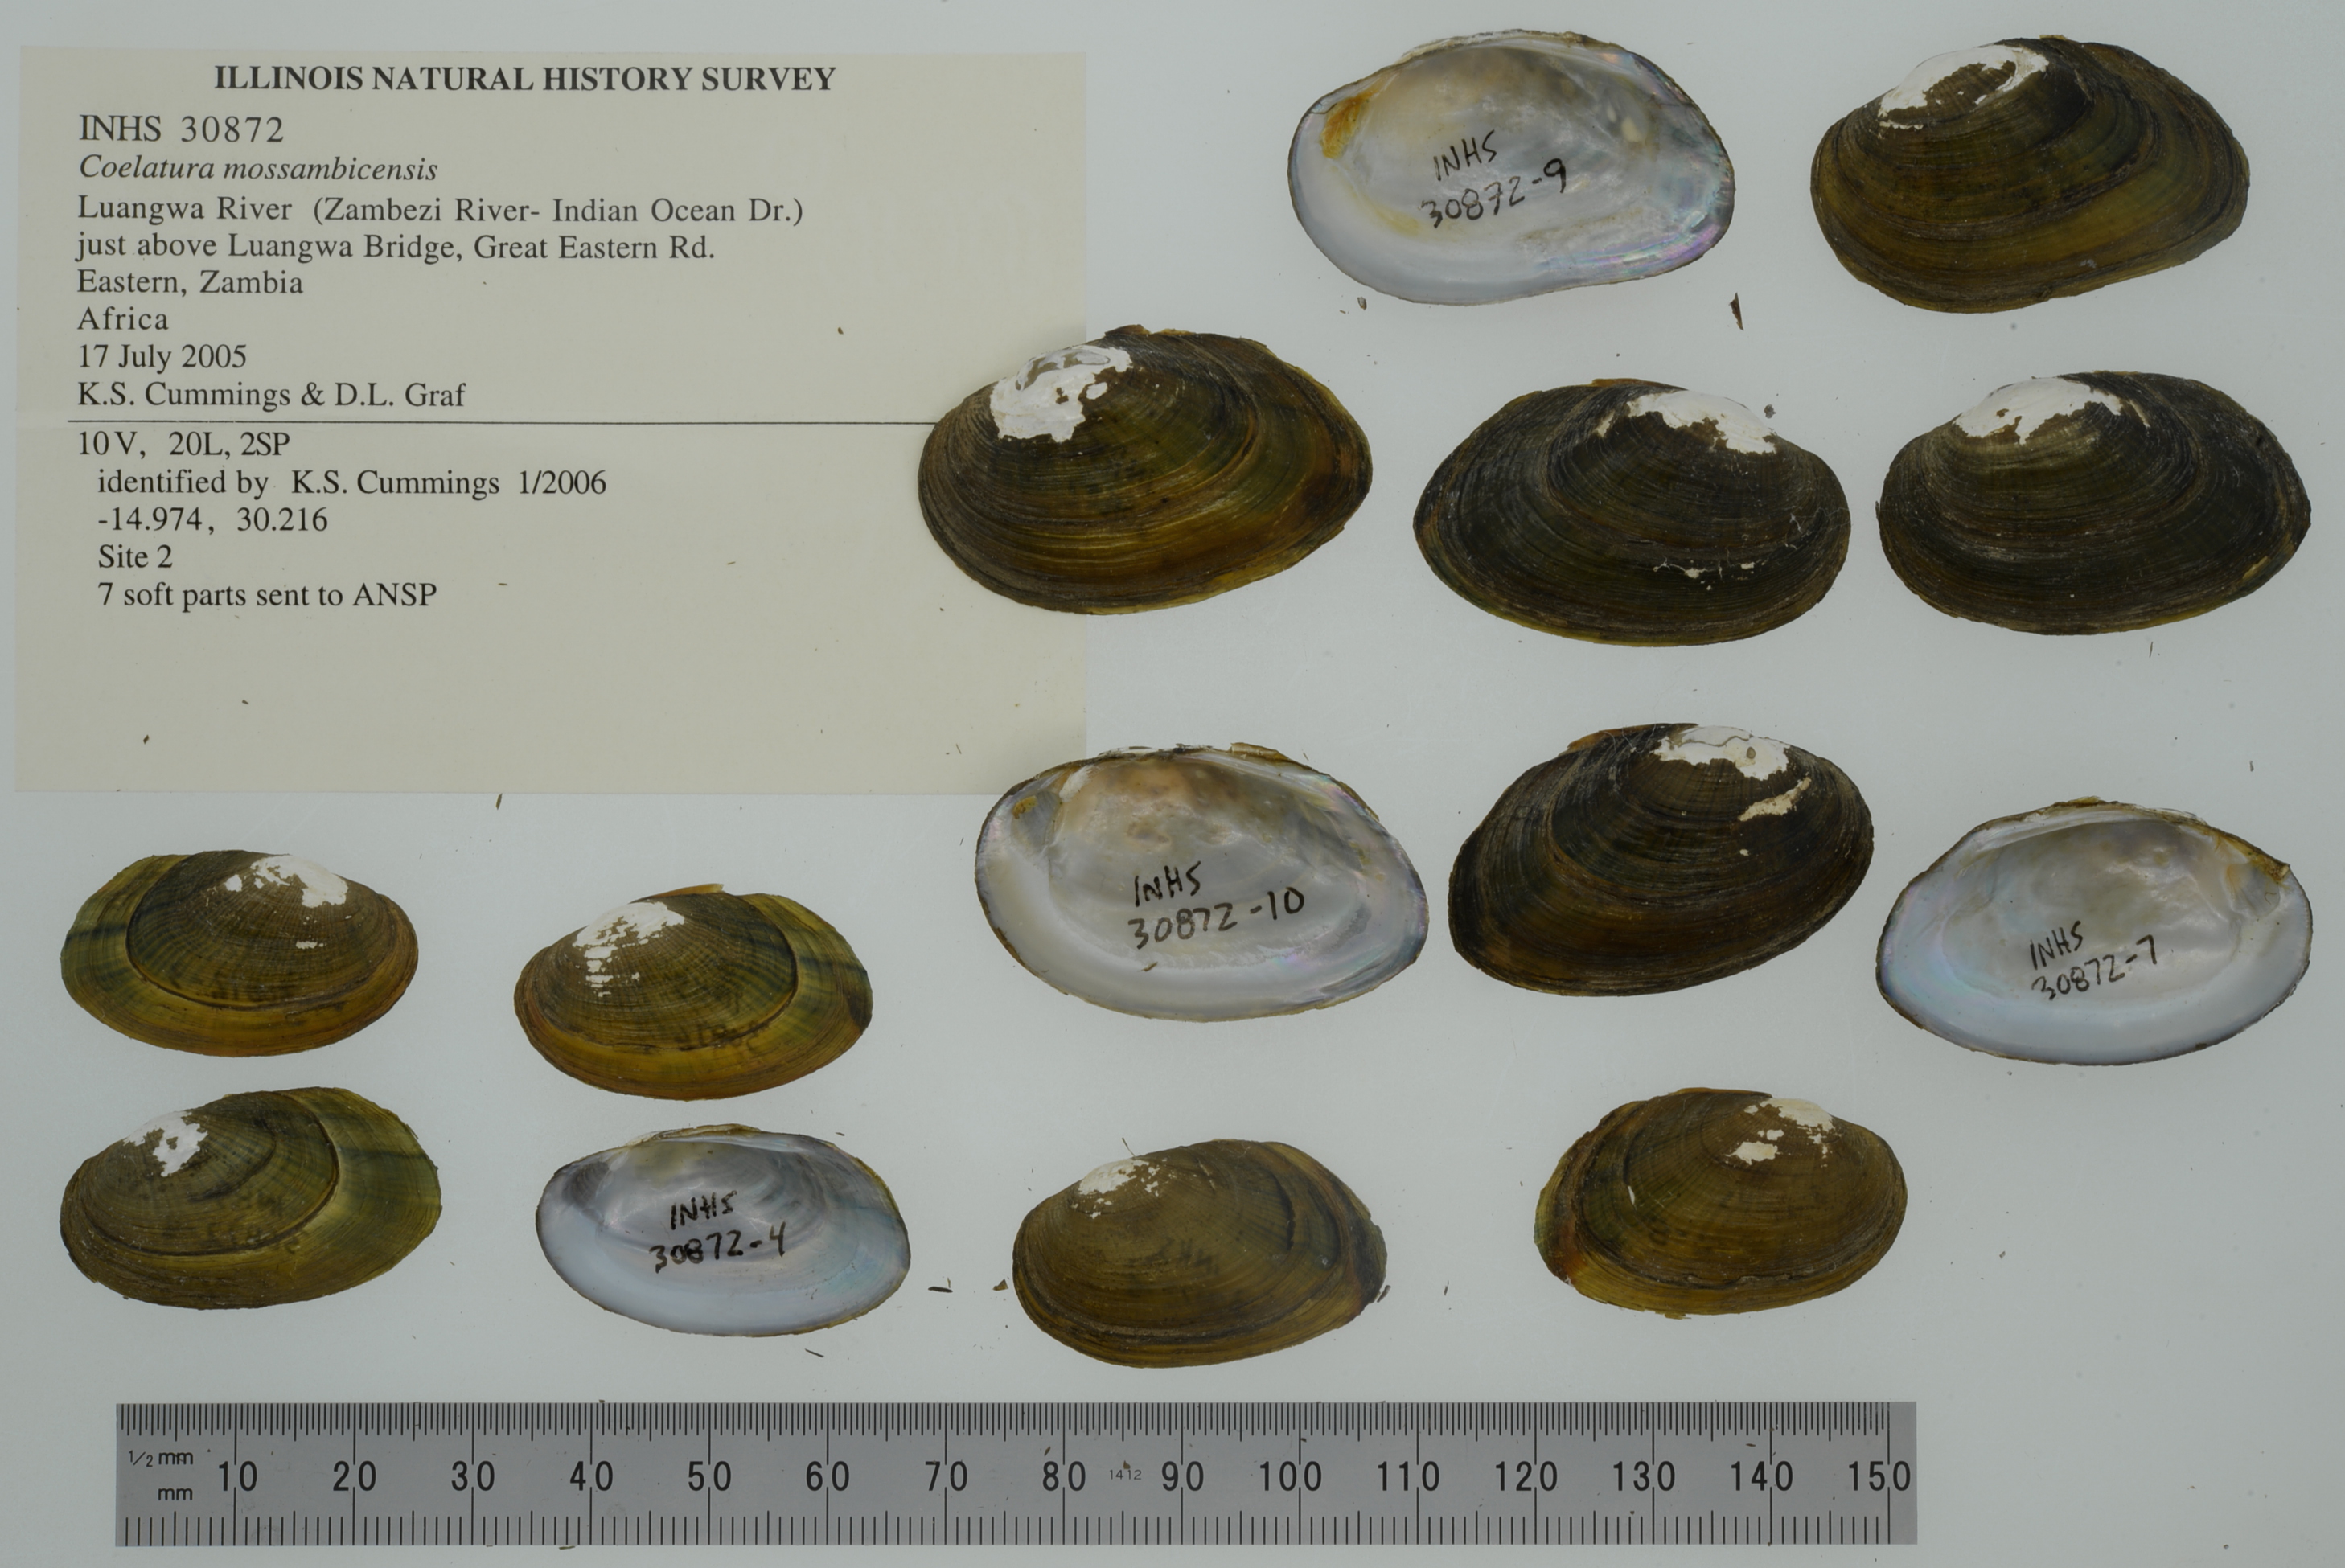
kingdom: Animalia
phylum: Mollusca
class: Bivalvia
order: Unionida
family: Unionidae
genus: Coelatura
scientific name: Coelatura mossambicensis
